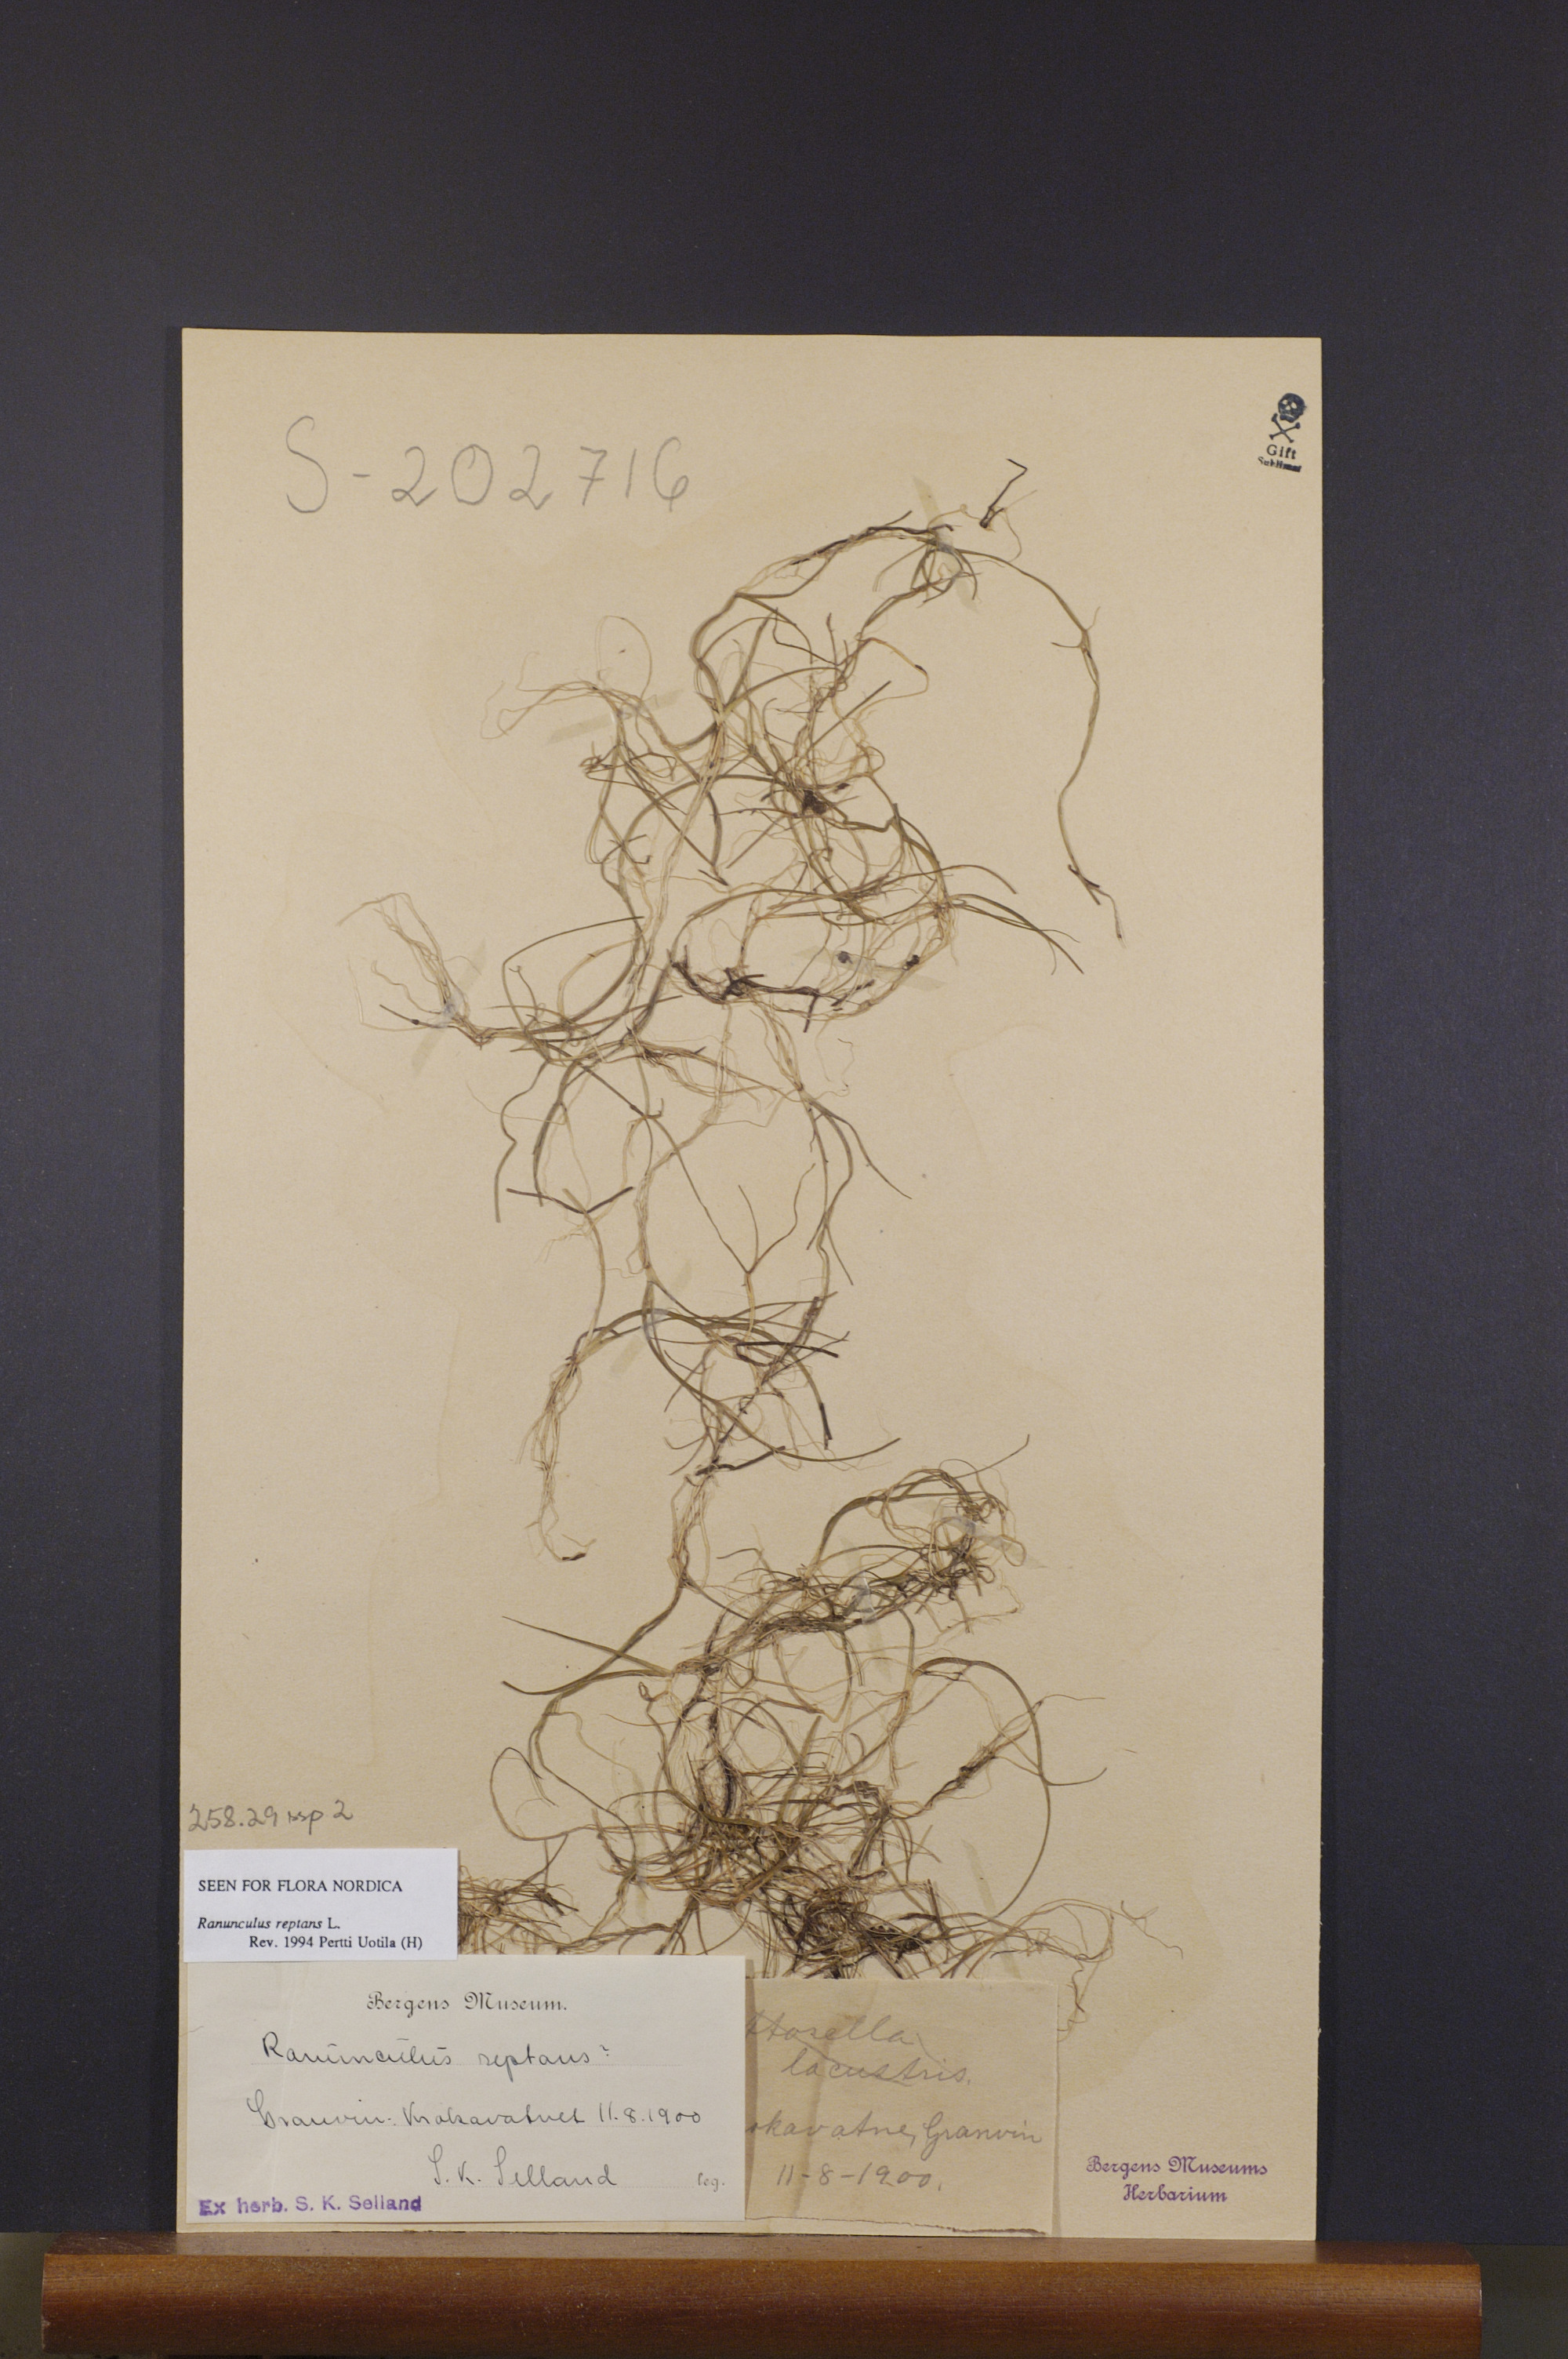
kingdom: Plantae
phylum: Tracheophyta
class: Magnoliopsida
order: Ranunculales
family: Ranunculaceae
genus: Ranunculus
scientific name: Ranunculus reptans
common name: Creeping spearwort
